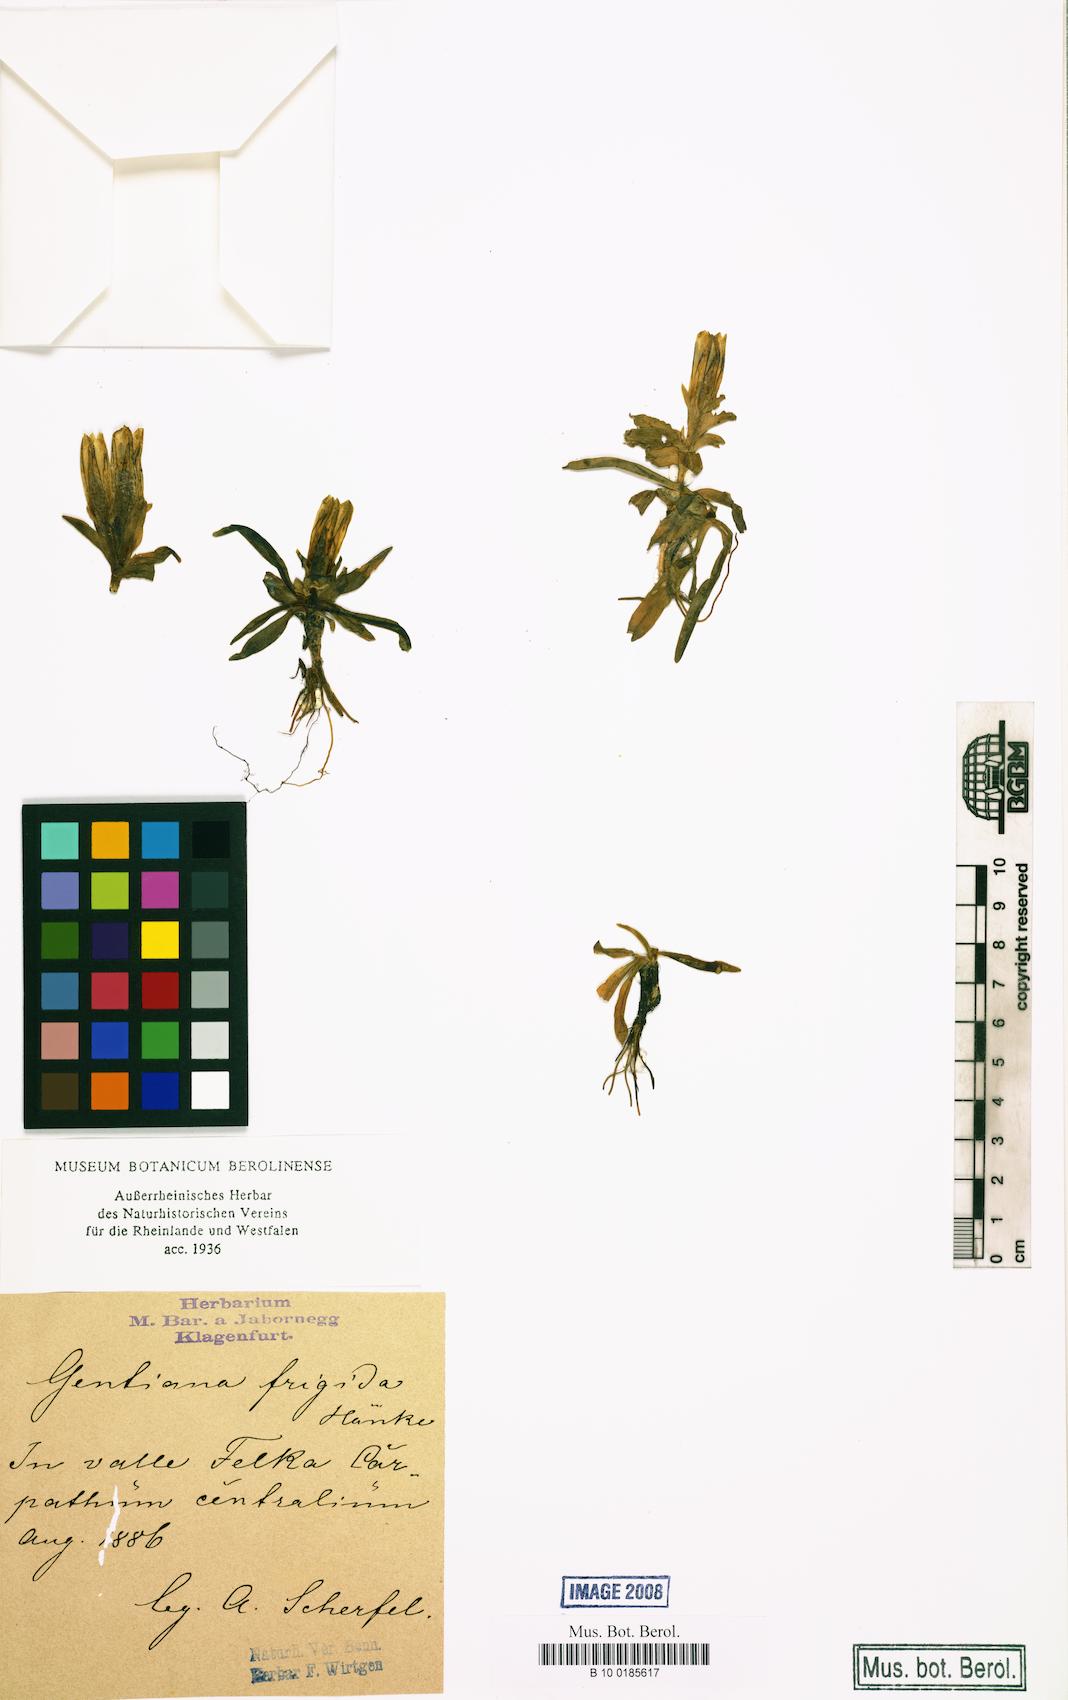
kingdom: Plantae
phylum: Tracheophyta
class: Magnoliopsida
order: Gentianales
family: Gentianaceae
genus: Gentiana
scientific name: Gentiana frigida
